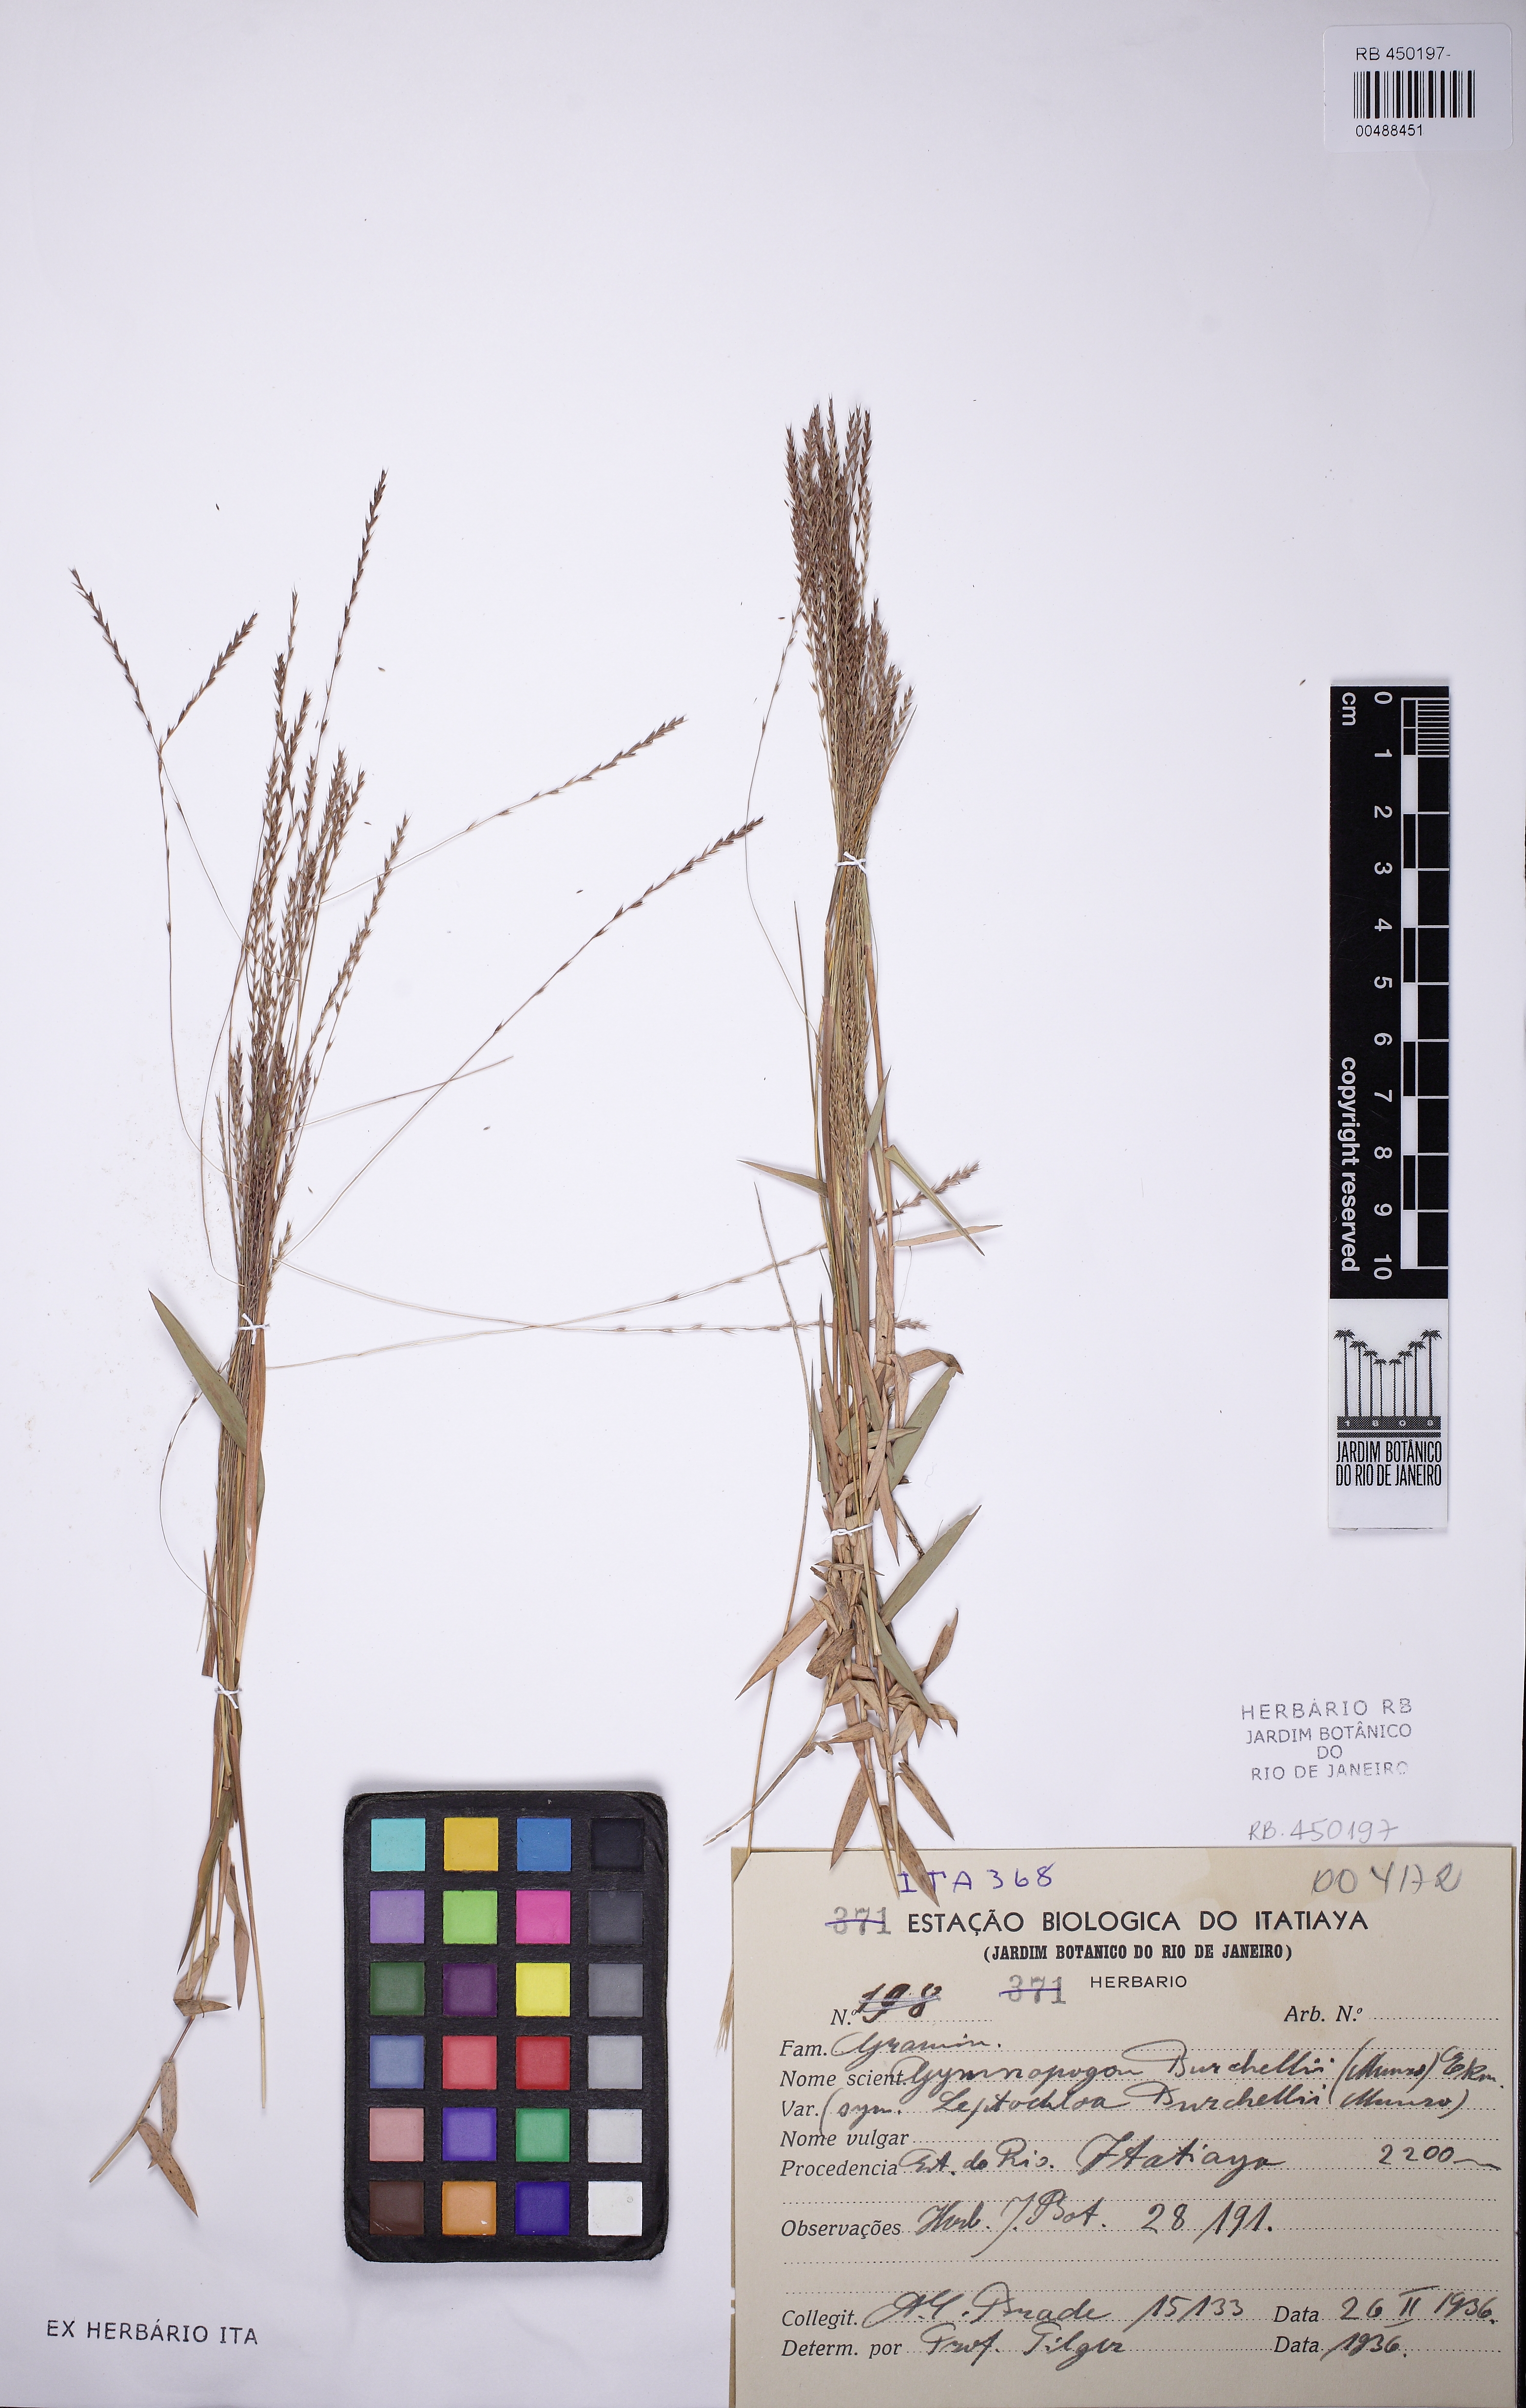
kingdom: Plantae
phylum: Tracheophyta
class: Liliopsida
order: Poales
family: Poaceae
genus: Gymnopogon
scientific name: Gymnopogon burchellii
